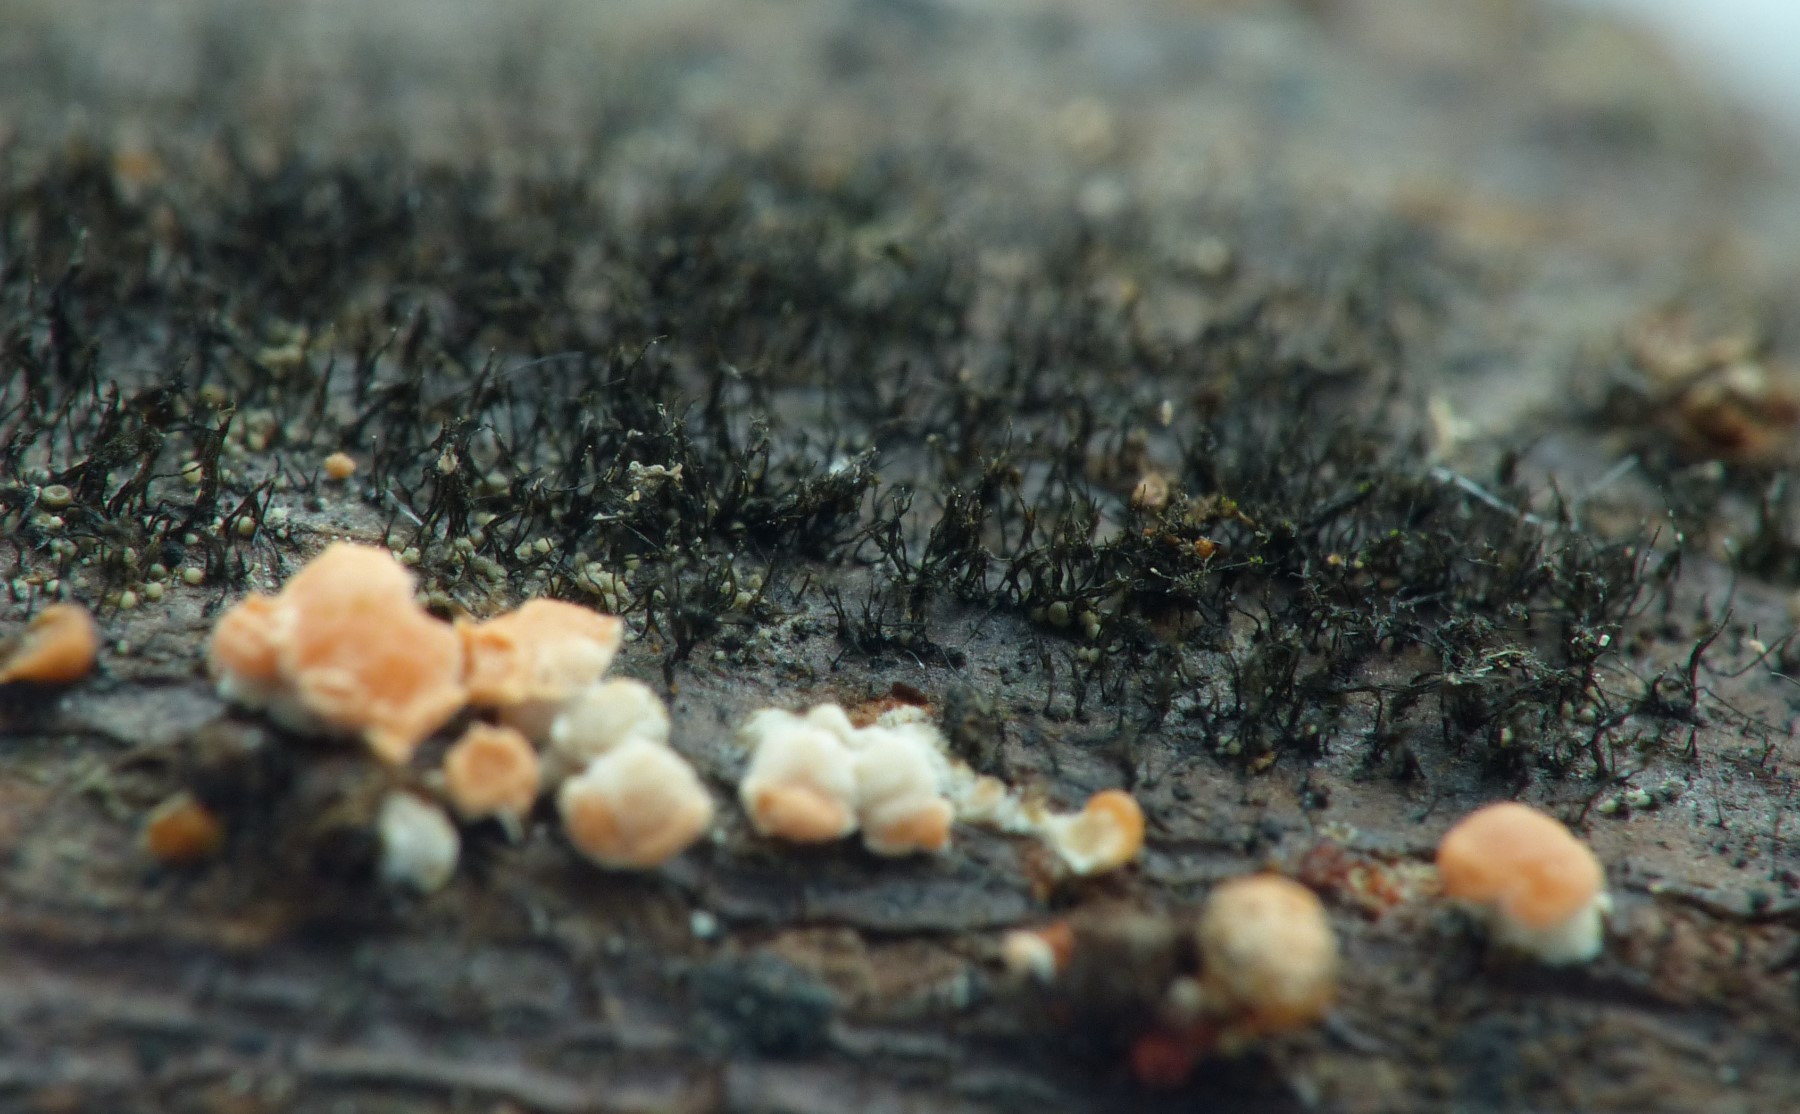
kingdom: Fungi
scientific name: Fungi
